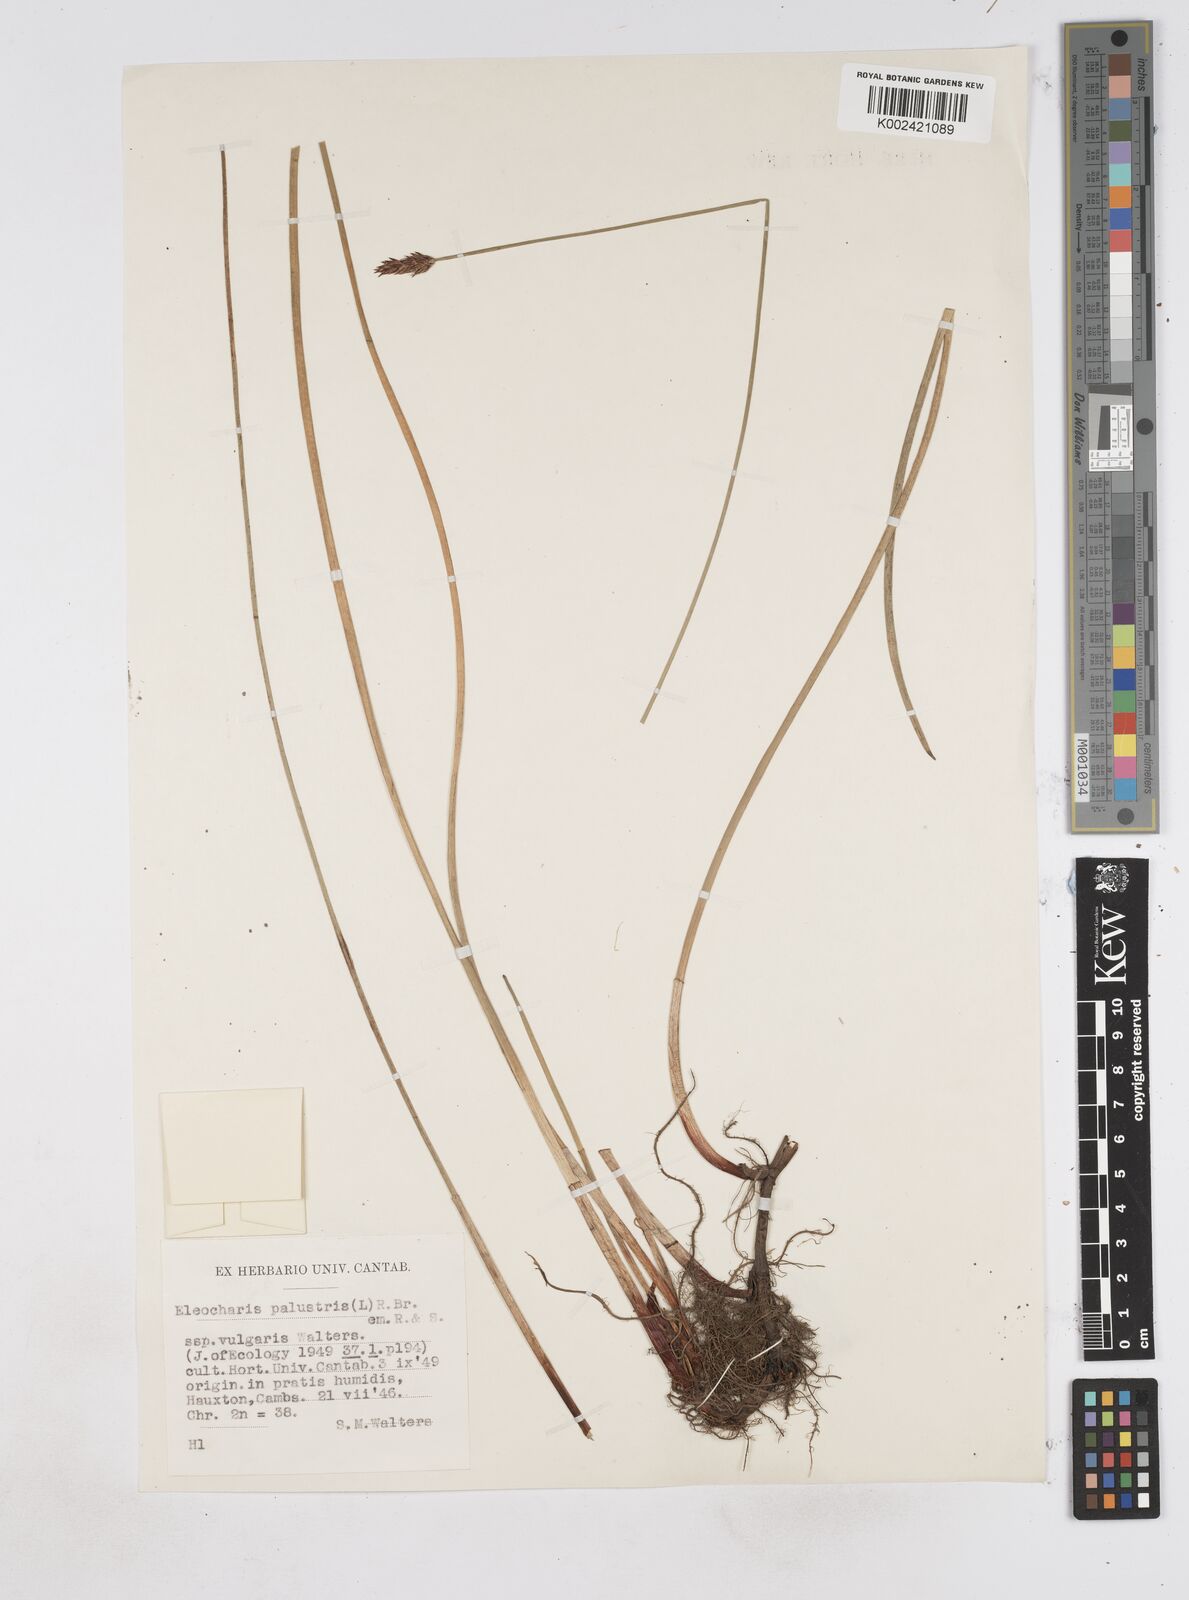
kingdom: Plantae
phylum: Tracheophyta
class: Liliopsida
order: Poales
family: Cyperaceae
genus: Eleocharis
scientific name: Eleocharis palustris
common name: Common spike-rush
